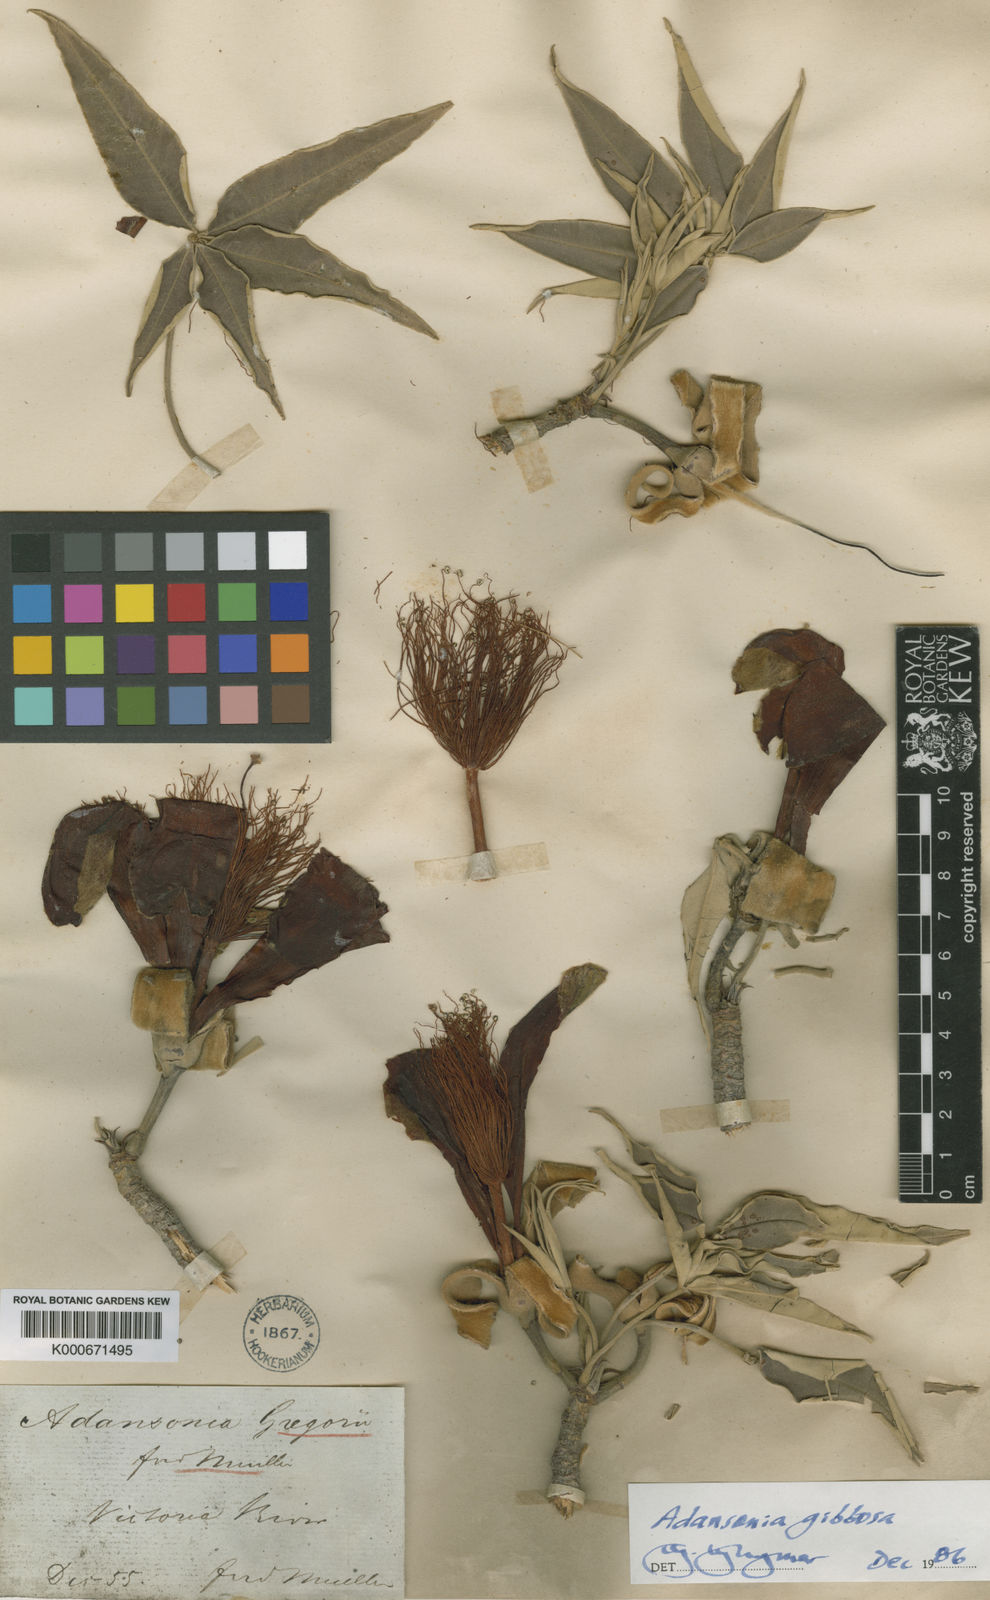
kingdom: Plantae
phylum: Tracheophyta
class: Magnoliopsida
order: Malvales
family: Malvaceae
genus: Adansonia
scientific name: Adansonia gregorii
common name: Australian baobab
